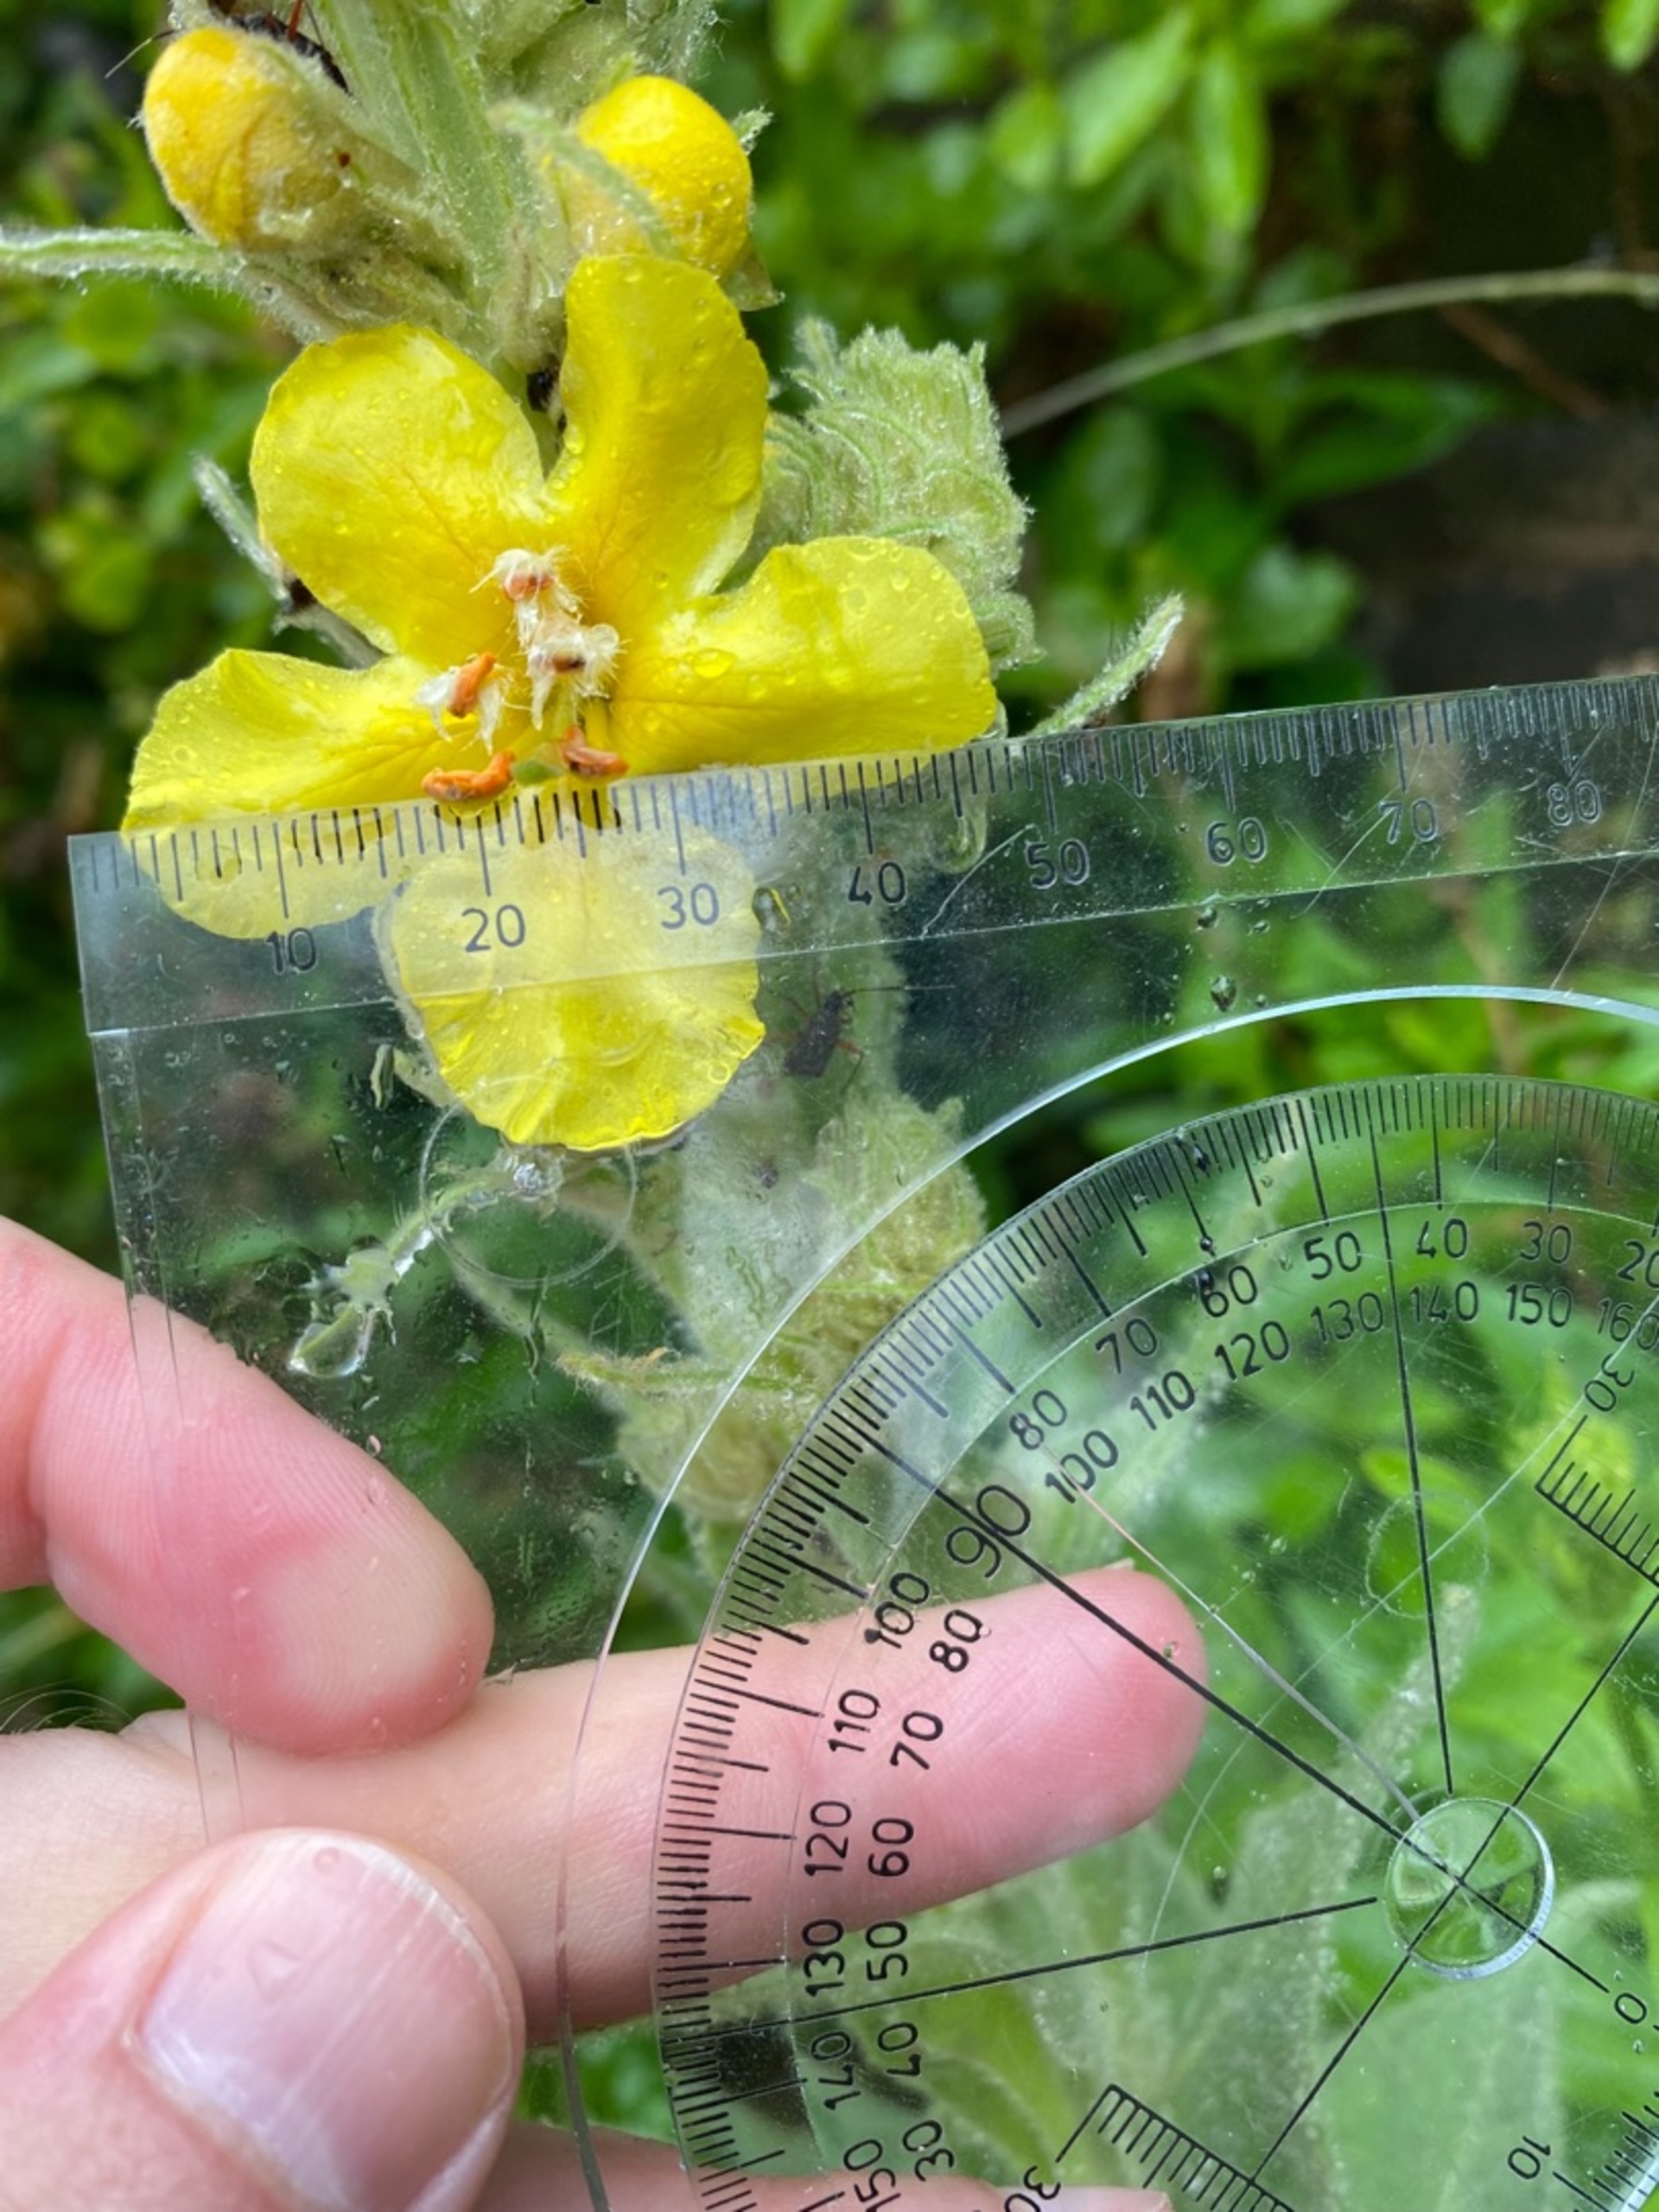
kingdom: Plantae
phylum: Tracheophyta
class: Magnoliopsida
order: Lamiales
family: Scrophulariaceae
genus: Verbascum
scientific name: Verbascum densiflorum
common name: Uldbladet kongelys
